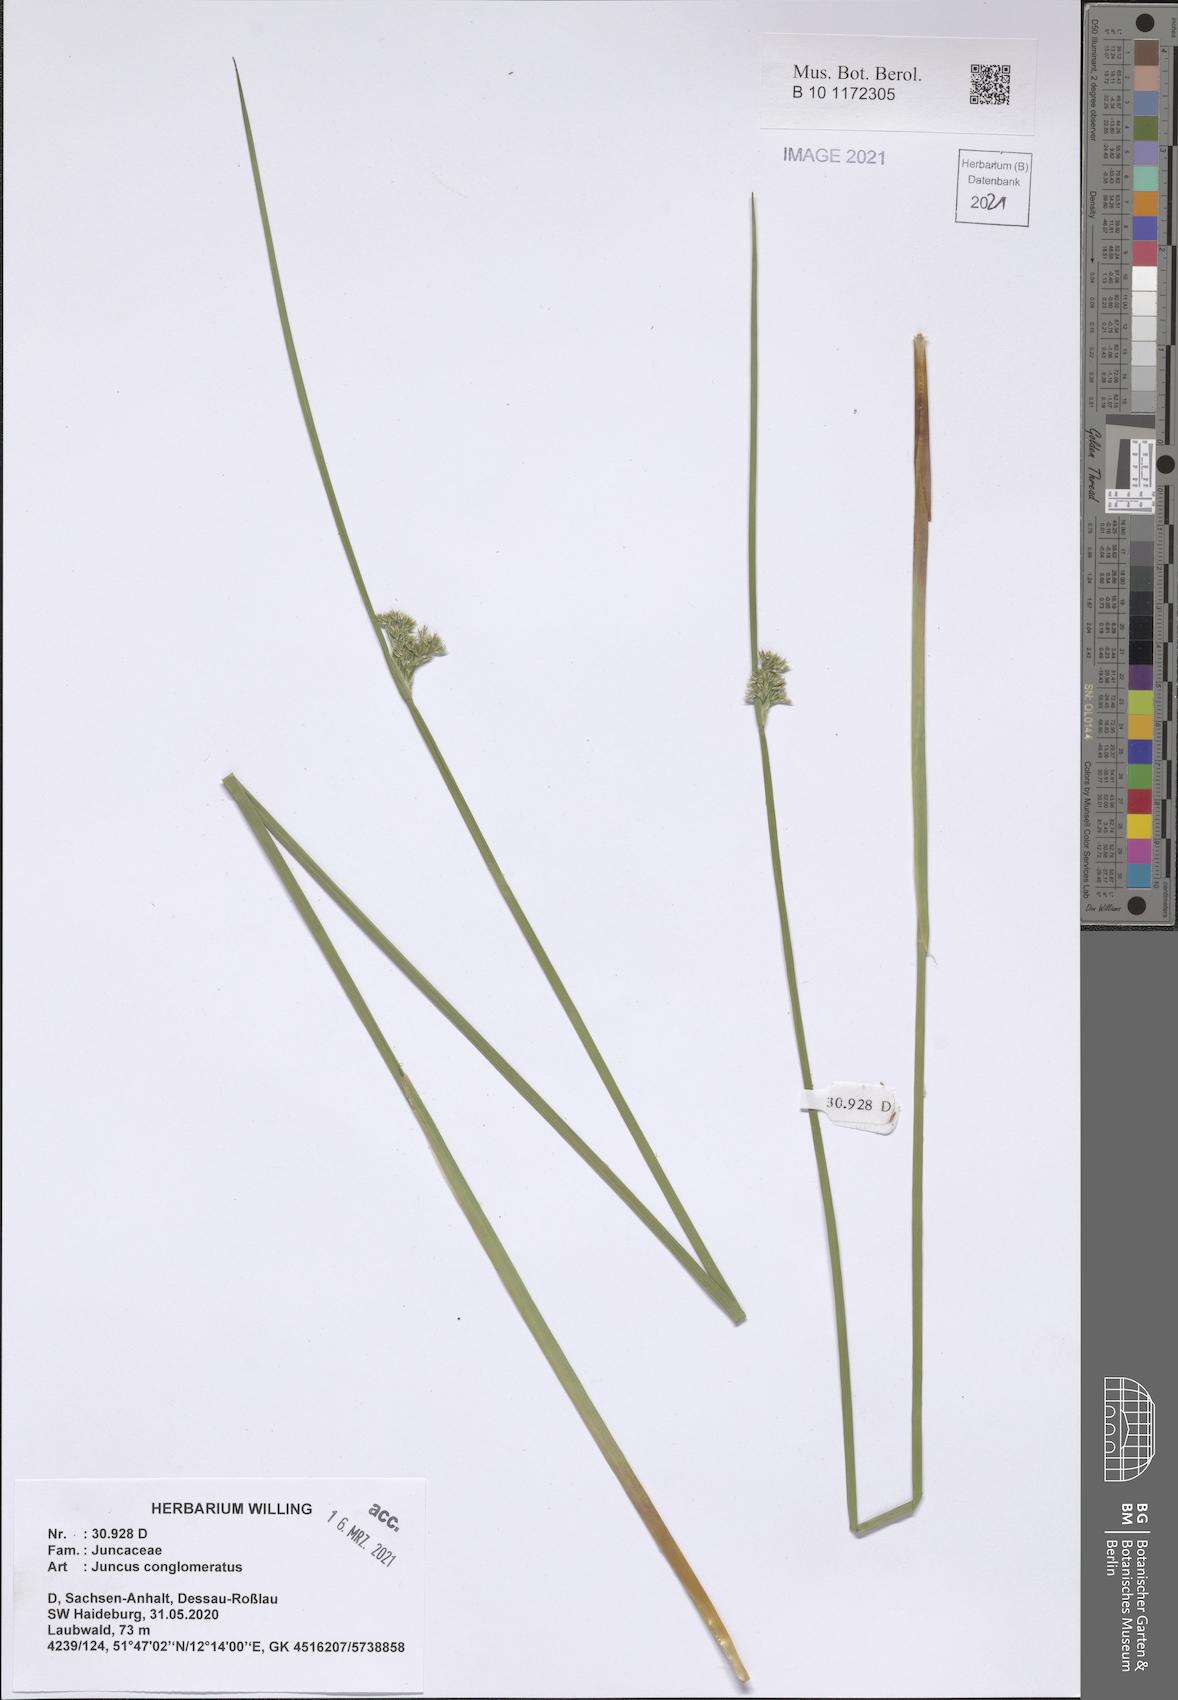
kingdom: Plantae
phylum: Tracheophyta
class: Liliopsida
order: Poales
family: Juncaceae
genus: Juncus
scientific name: Juncus conglomeratus
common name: Compact rush
